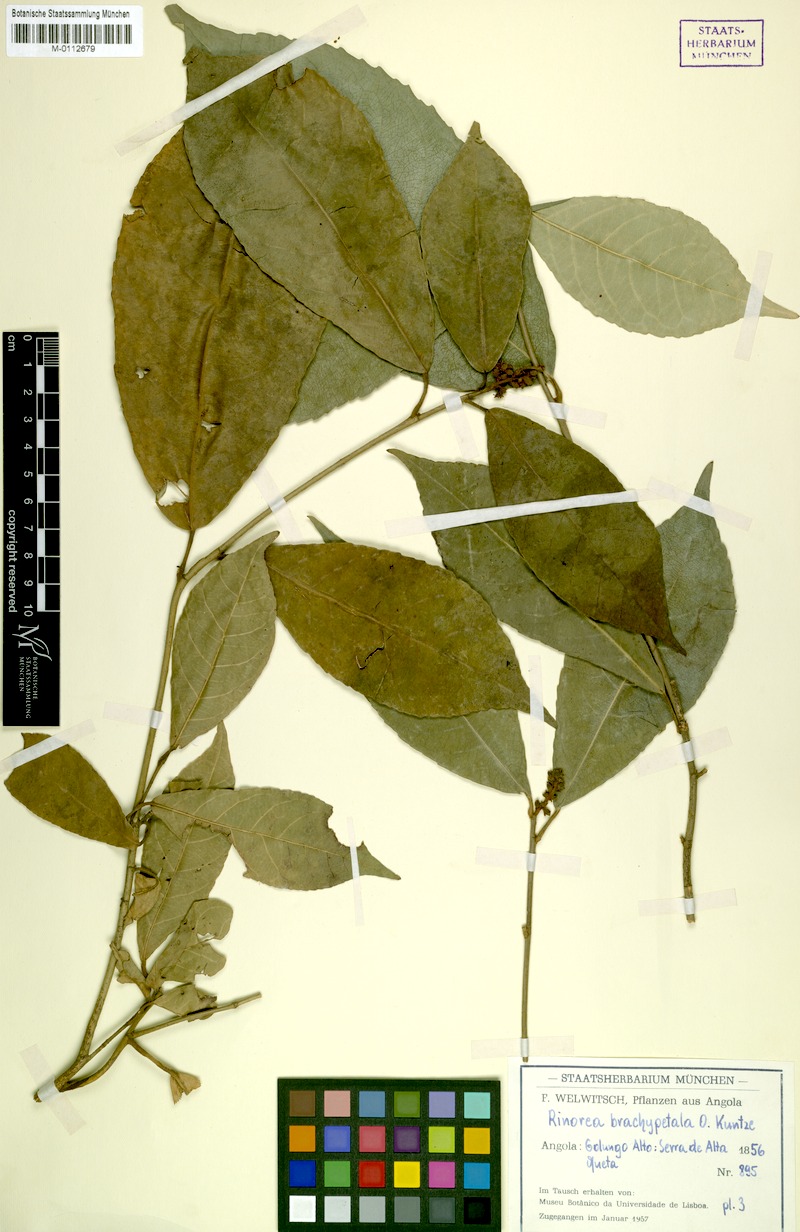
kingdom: Plantae
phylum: Tracheophyta
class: Magnoliopsida
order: Malpighiales
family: Violaceae
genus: Rinorea
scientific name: Rinorea brachypetala
